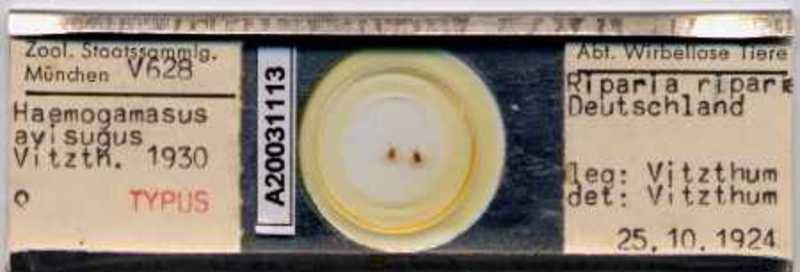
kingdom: Animalia
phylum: Arthropoda
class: Arachnida
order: Mesostigmata
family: Parasitidae
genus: Haemogamasus
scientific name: Haemogamasus
